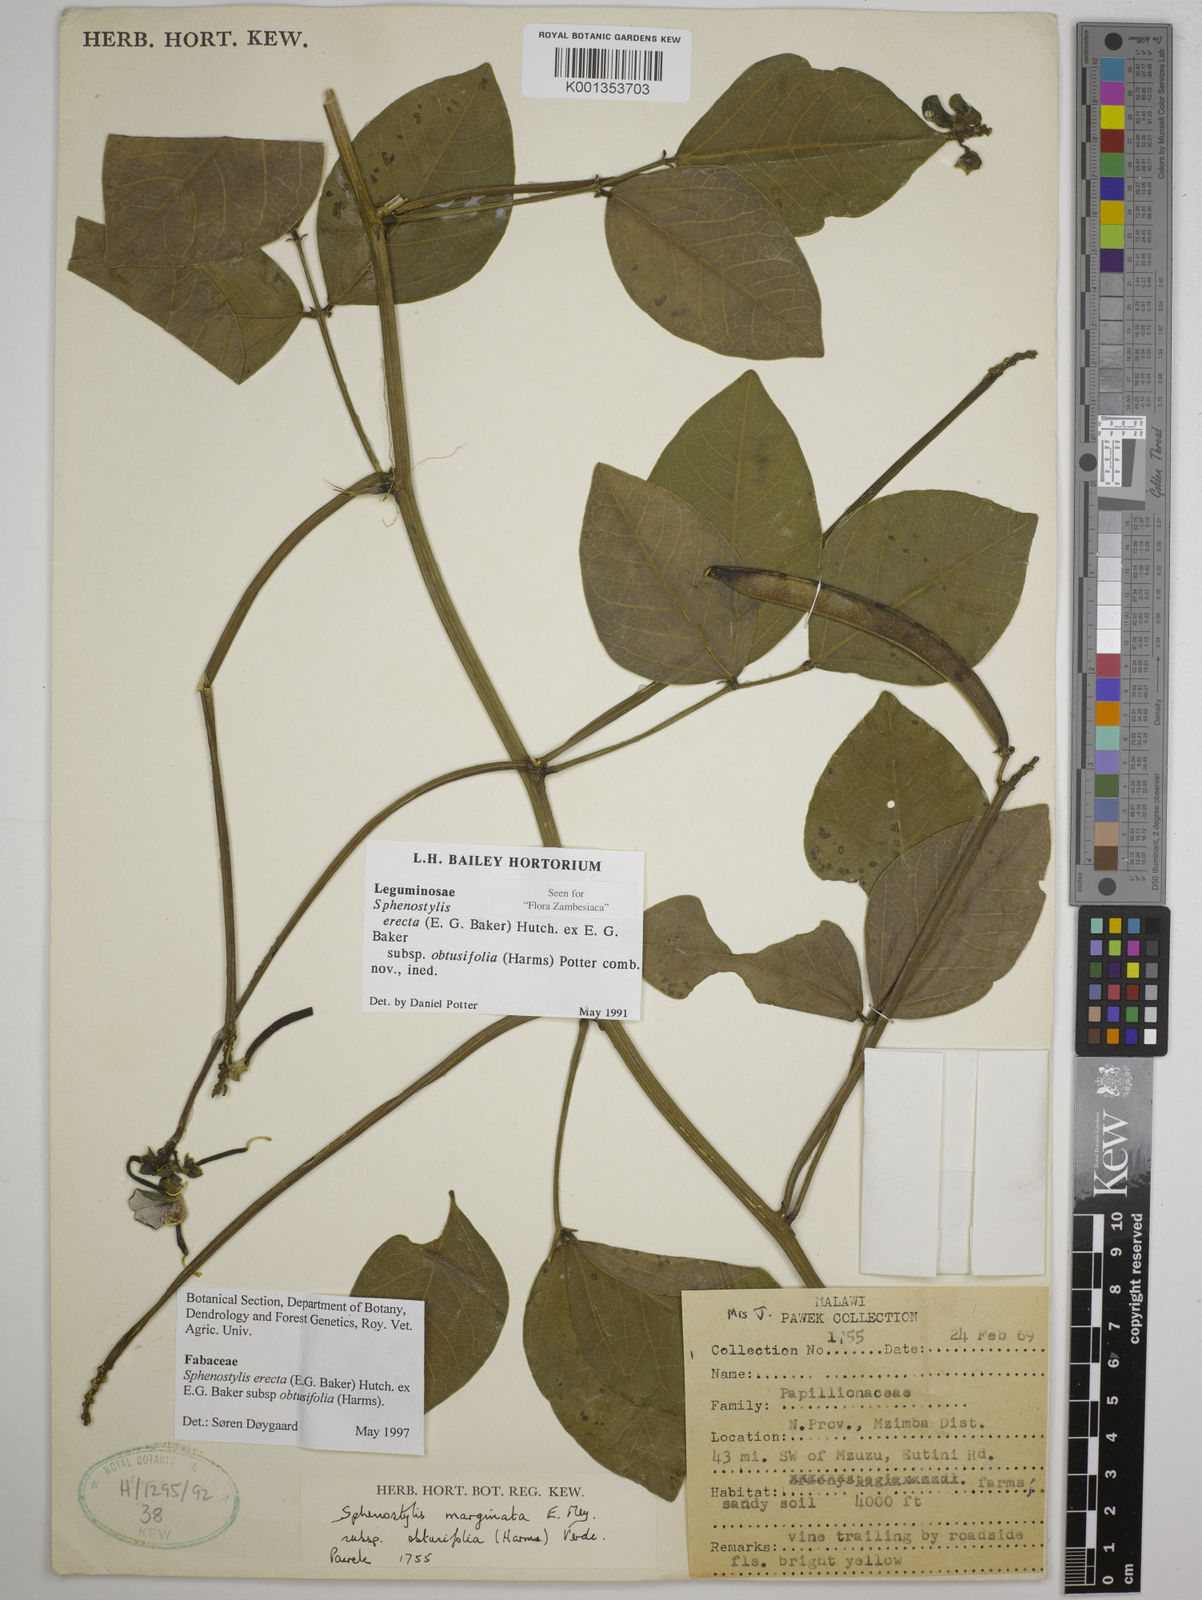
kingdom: Plantae
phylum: Tracheophyta
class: Magnoliopsida
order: Fabales
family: Fabaceae
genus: Sphenostylis
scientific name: Sphenostylis erecta
